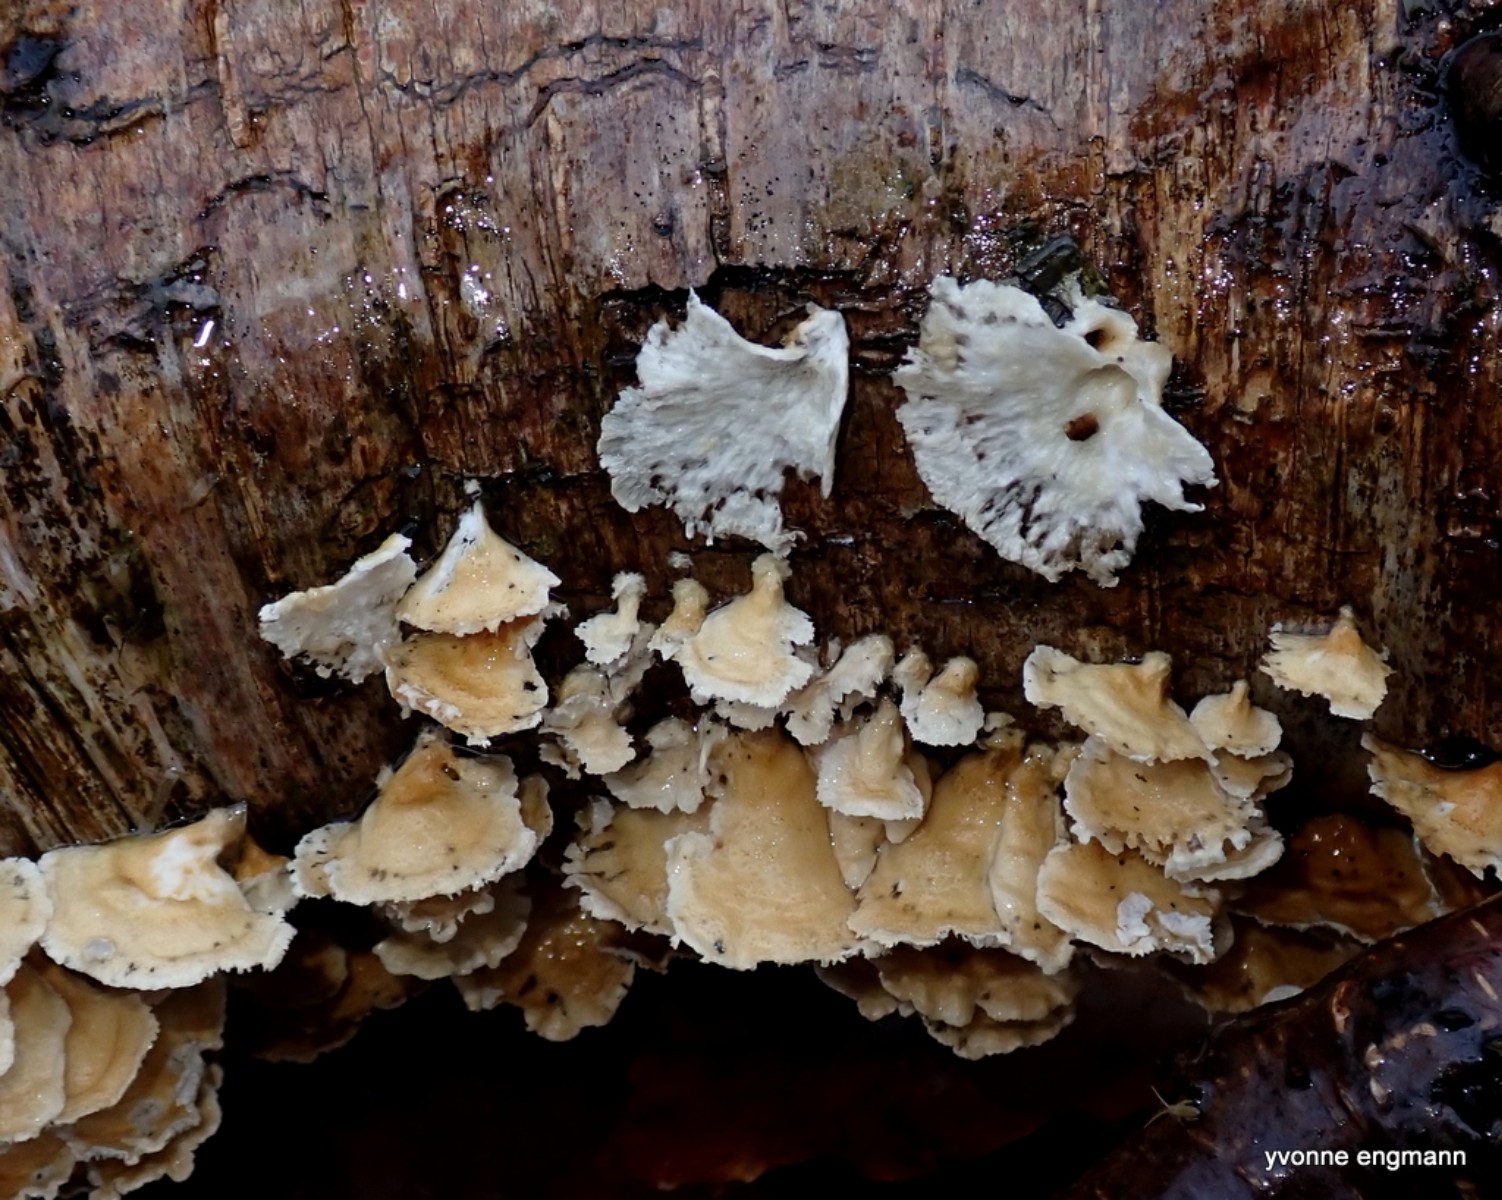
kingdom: Fungi
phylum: Basidiomycota
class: Agaricomycetes
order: Amylocorticiales
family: Amylocorticiaceae
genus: Plicaturopsis
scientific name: Plicaturopsis crispa
